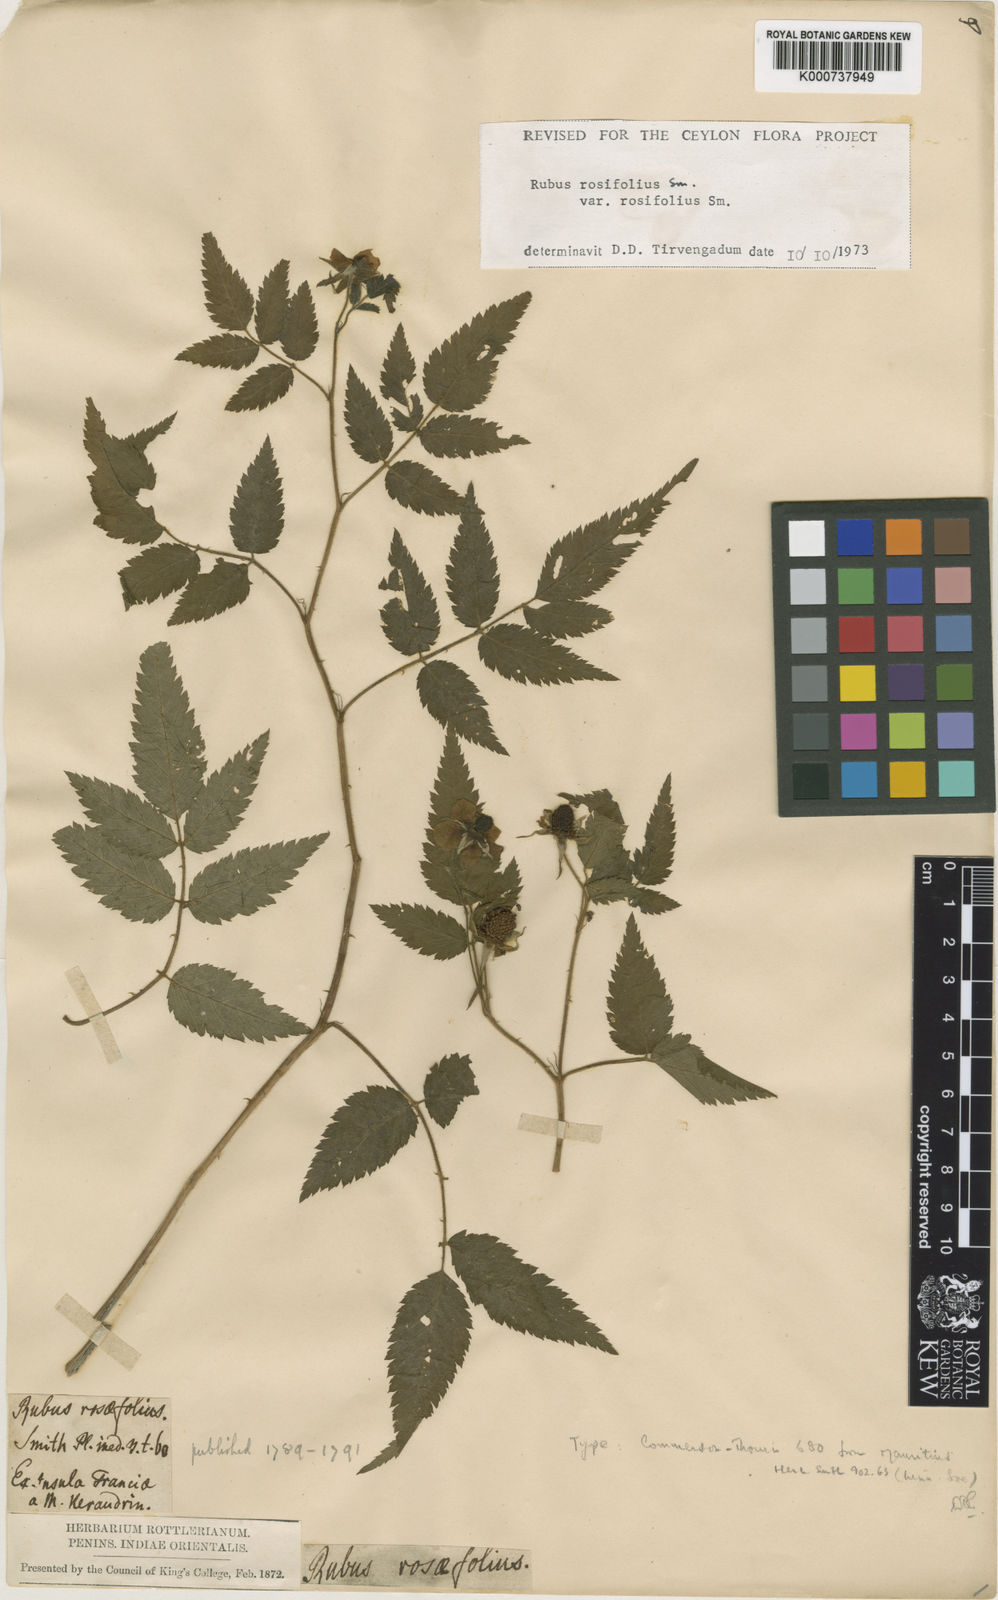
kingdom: Plantae
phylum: Tracheophyta
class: Magnoliopsida
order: Rosales
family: Rosaceae
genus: Rubus
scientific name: Rubus rosifolius
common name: Roseleaf raspberry
